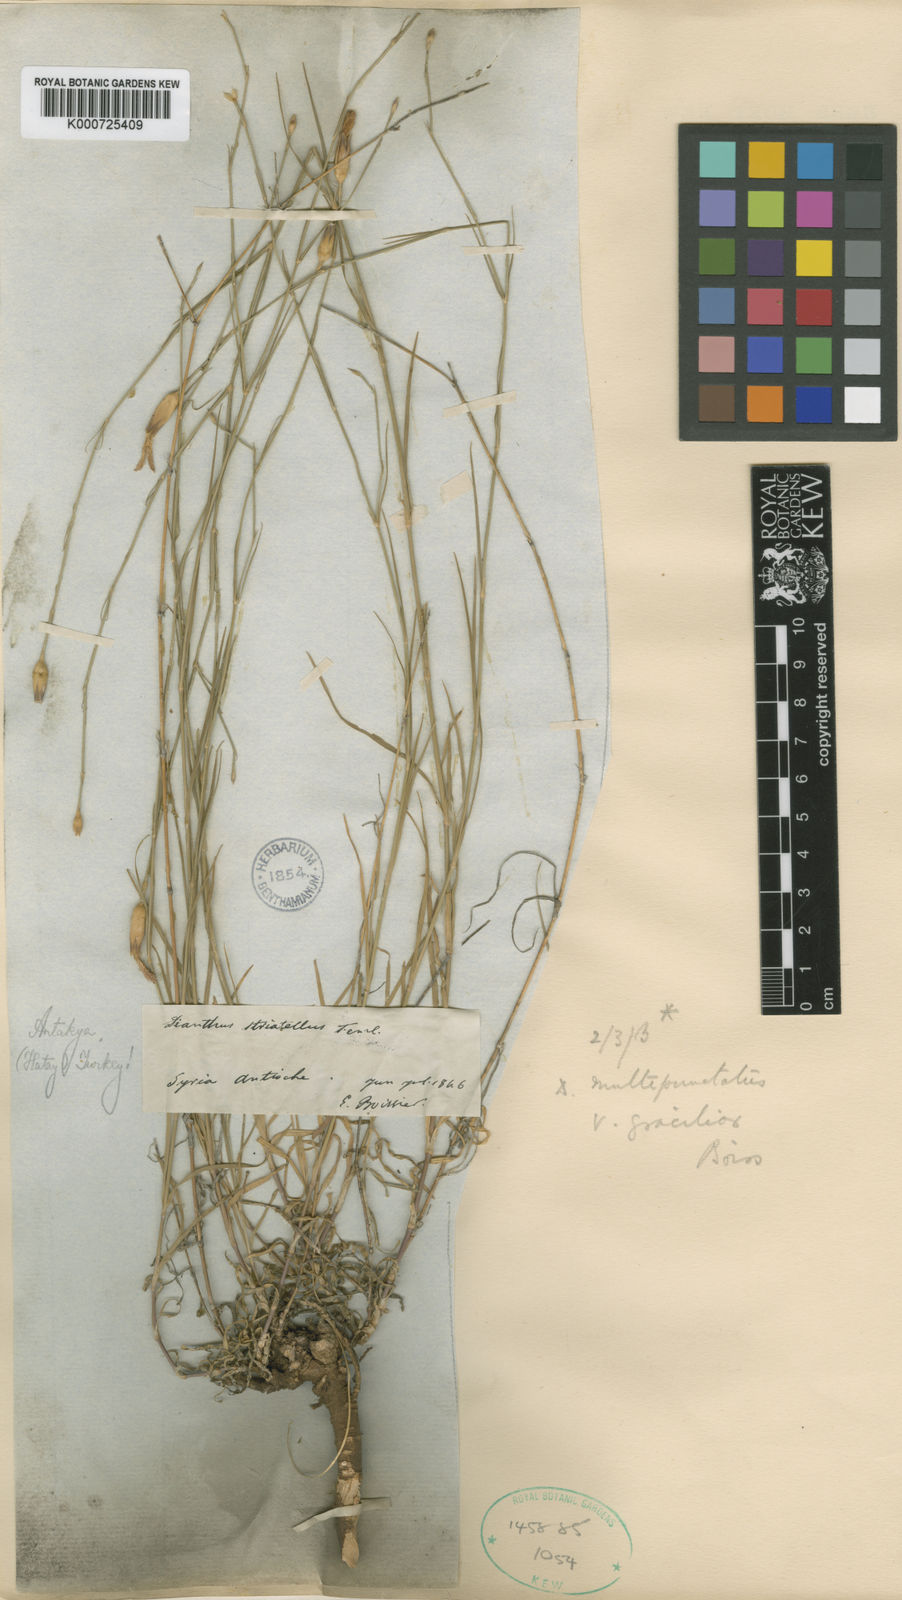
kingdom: Plantae
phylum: Tracheophyta
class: Magnoliopsida
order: Caryophyllales
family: Caryophyllaceae
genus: Dianthus
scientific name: Dianthus strictus
